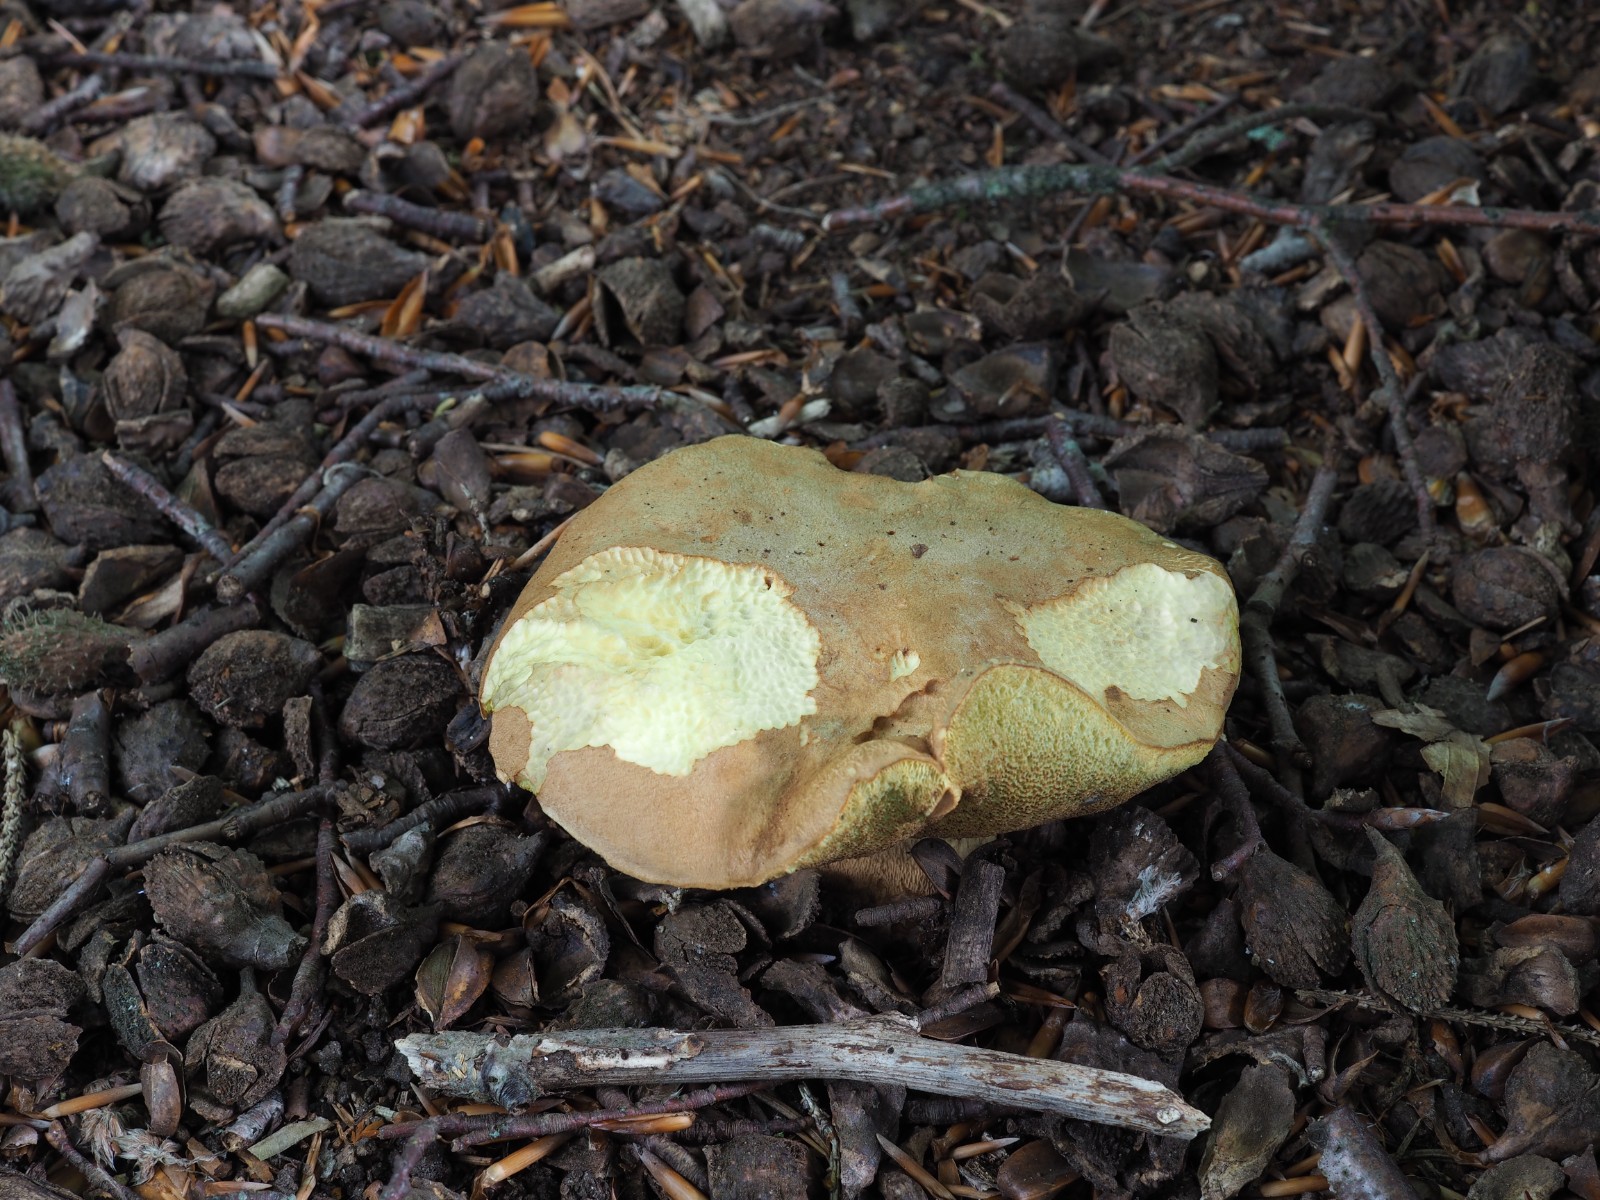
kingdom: Fungi
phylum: Basidiomycota
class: Agaricomycetes
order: Boletales
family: Boletaceae
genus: Butyriboletus
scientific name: Butyriboletus appendiculatus
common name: tenstokket rørhat
